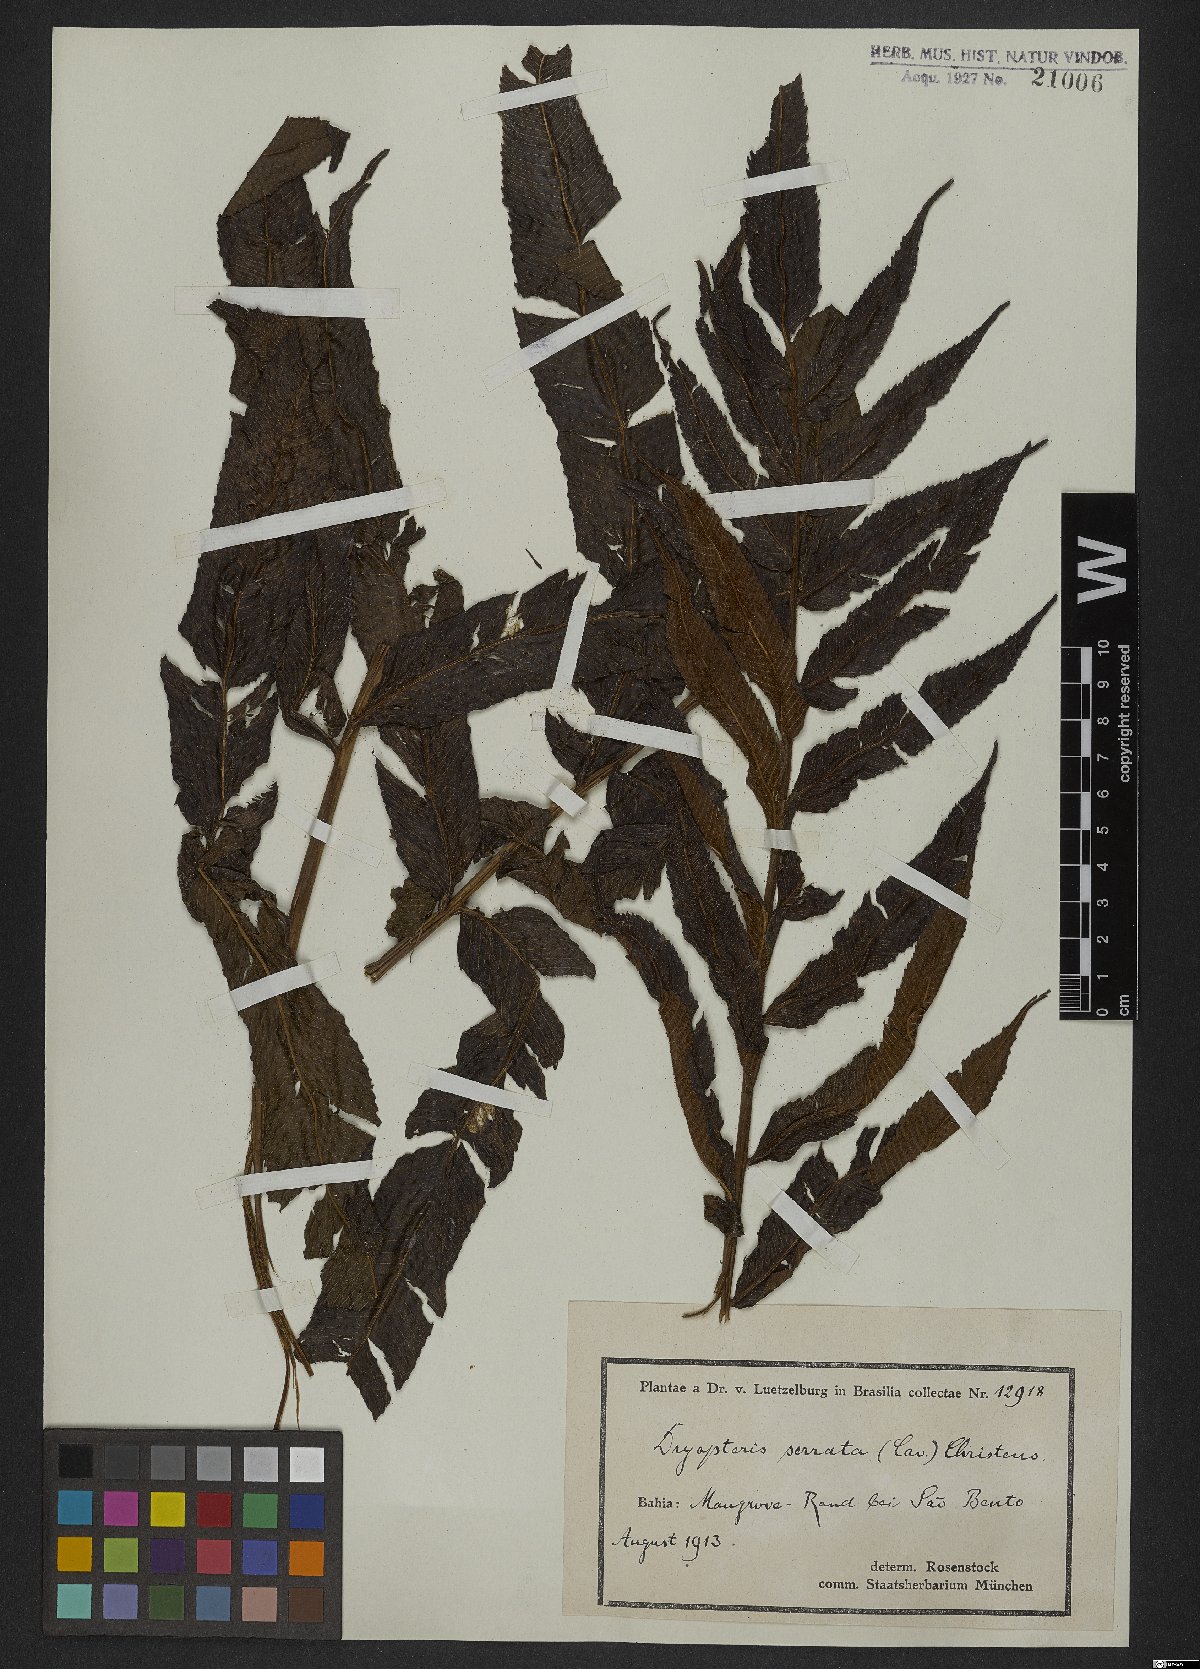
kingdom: Plantae
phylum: Tracheophyta
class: Polypodiopsida
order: Polypodiales
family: Thelypteridaceae
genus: Meniscium
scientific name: Meniscium serratum
